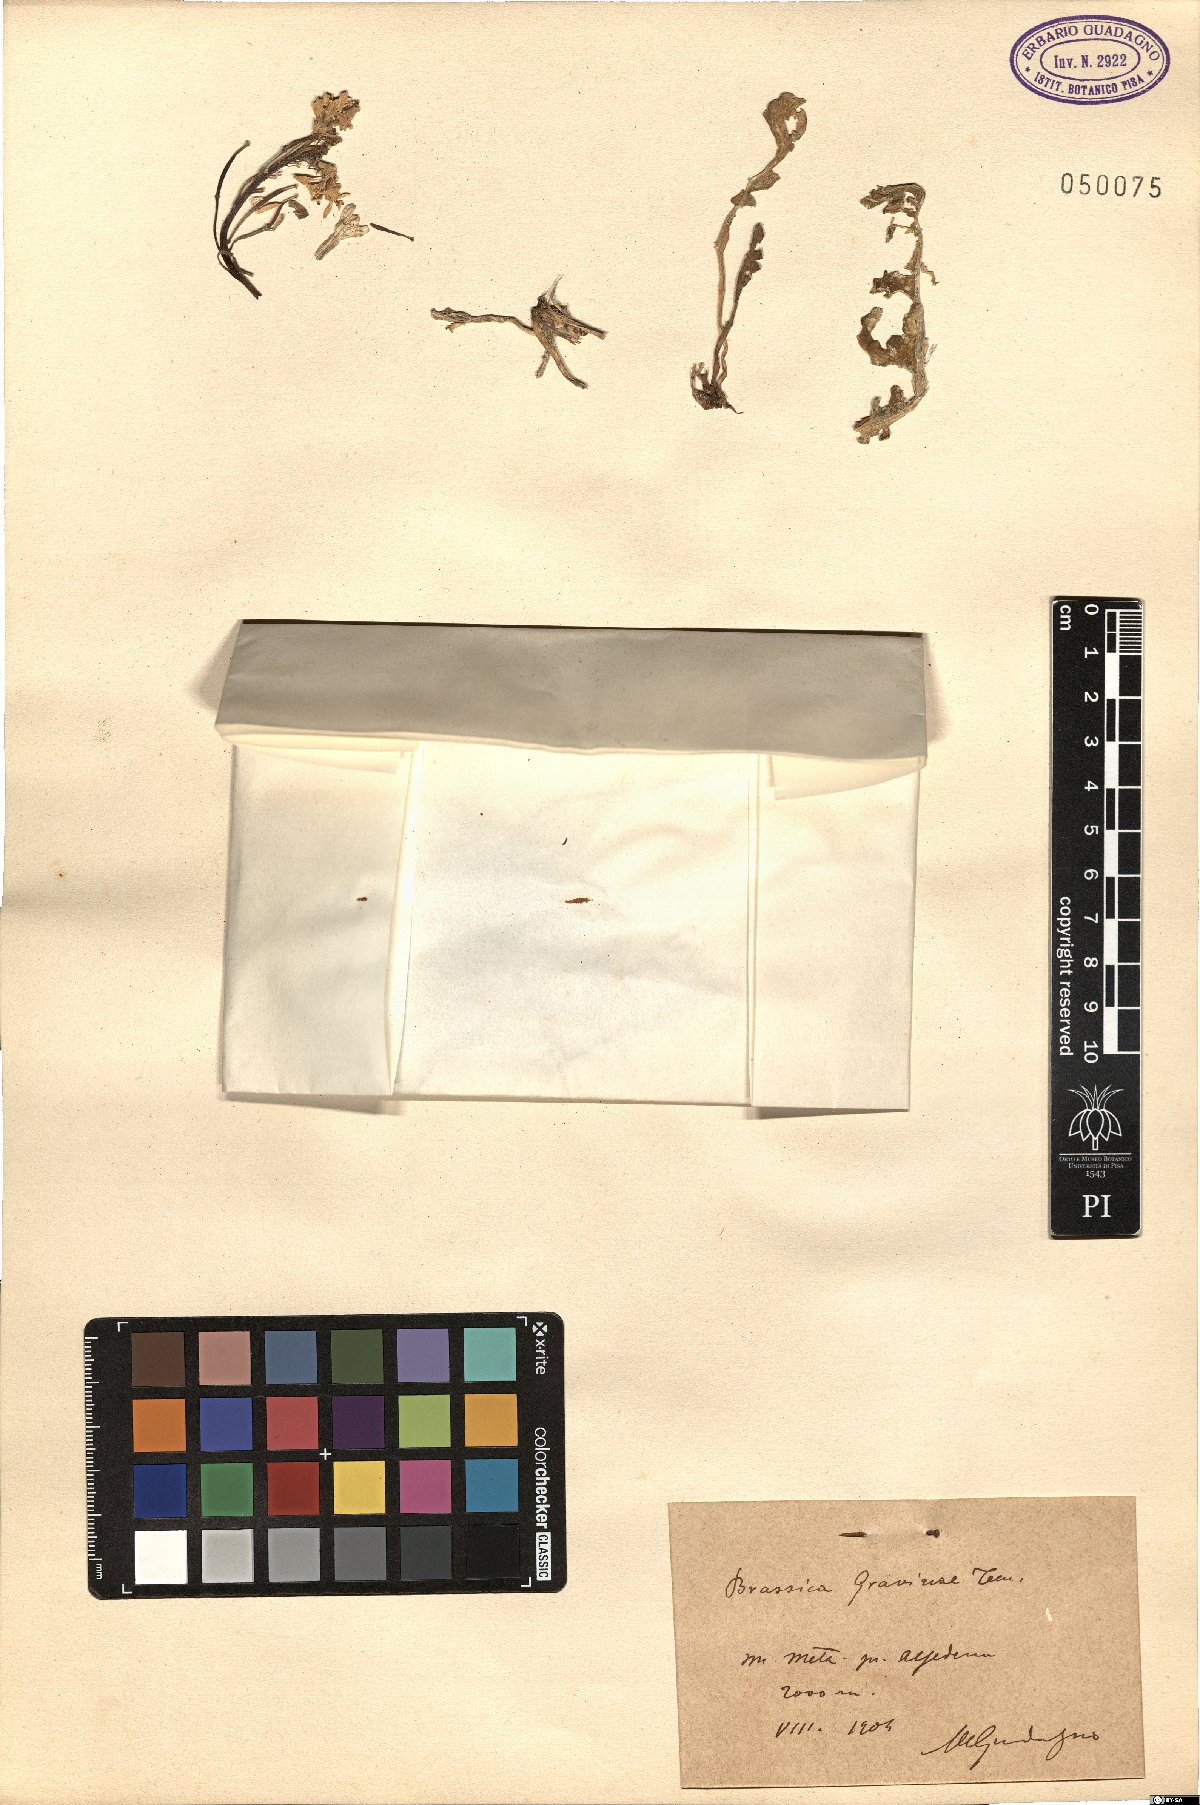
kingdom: Plantae
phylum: Tracheophyta
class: Magnoliopsida
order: Brassicales
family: Brassicaceae
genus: Brassica
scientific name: Brassica gravinae
